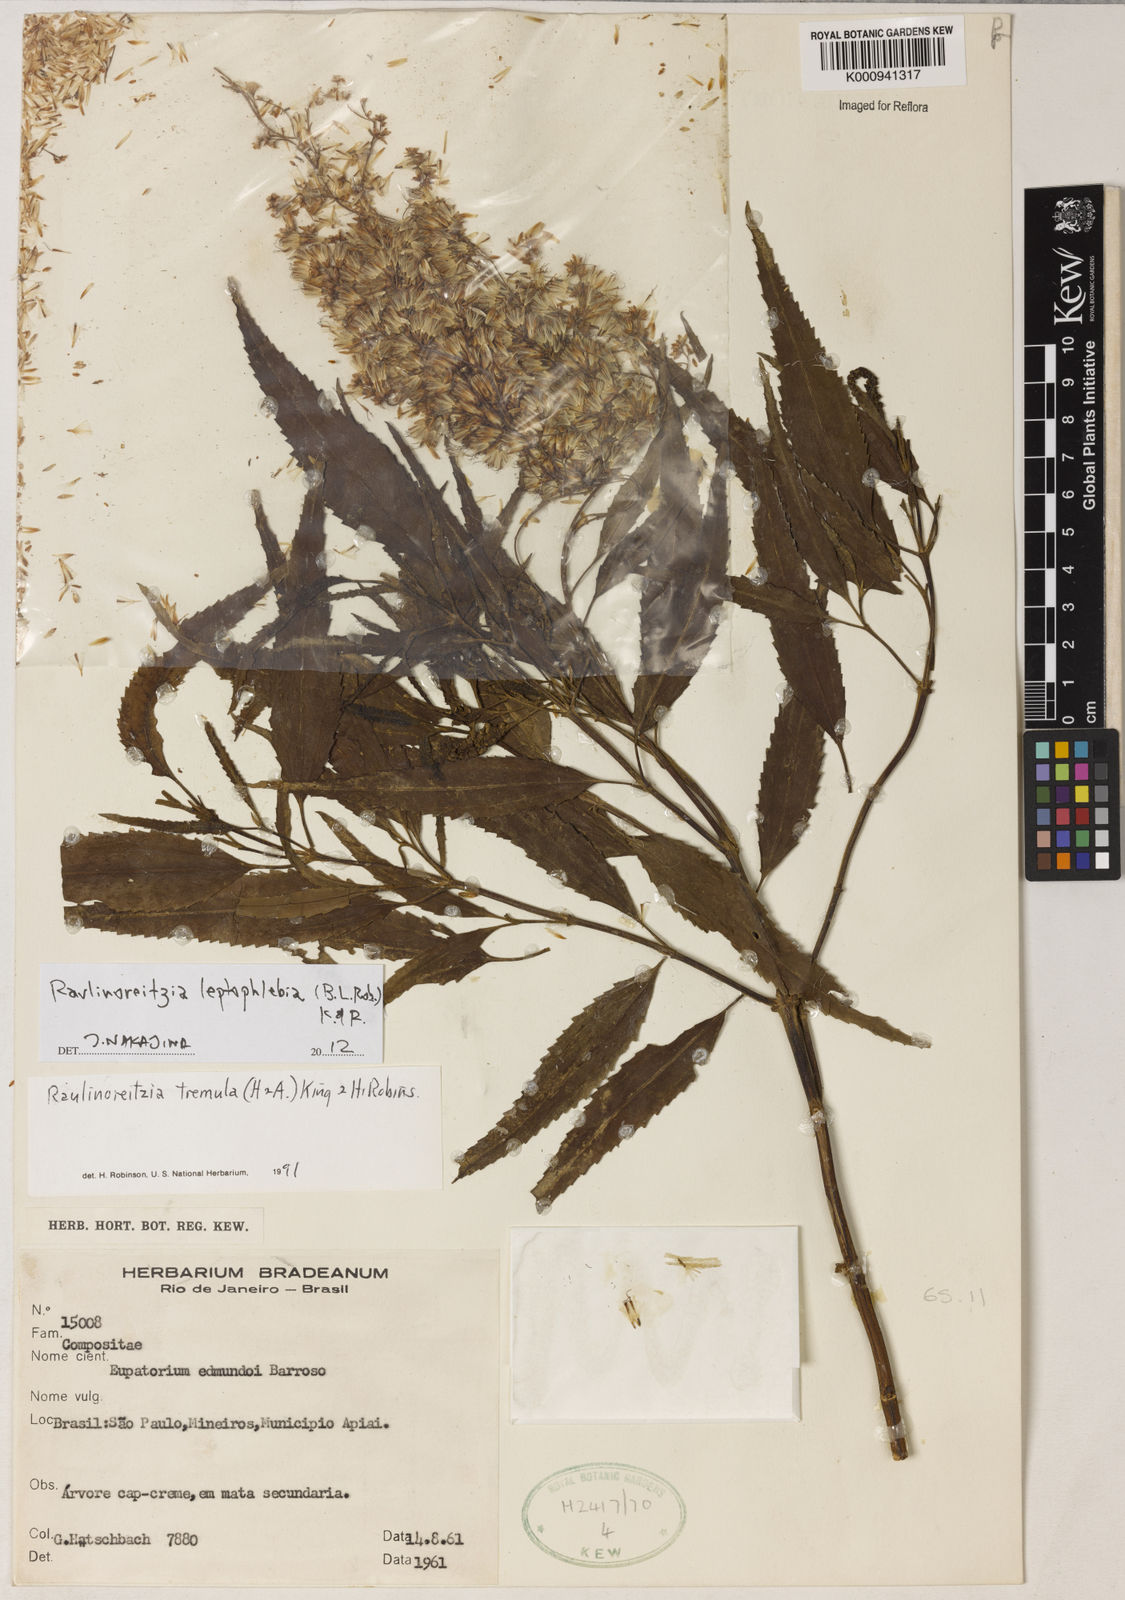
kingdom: Plantae
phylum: Tracheophyta
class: Magnoliopsida
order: Asterales
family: Asteraceae
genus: Raulinoreitzia
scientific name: Raulinoreitzia leptophlebia
